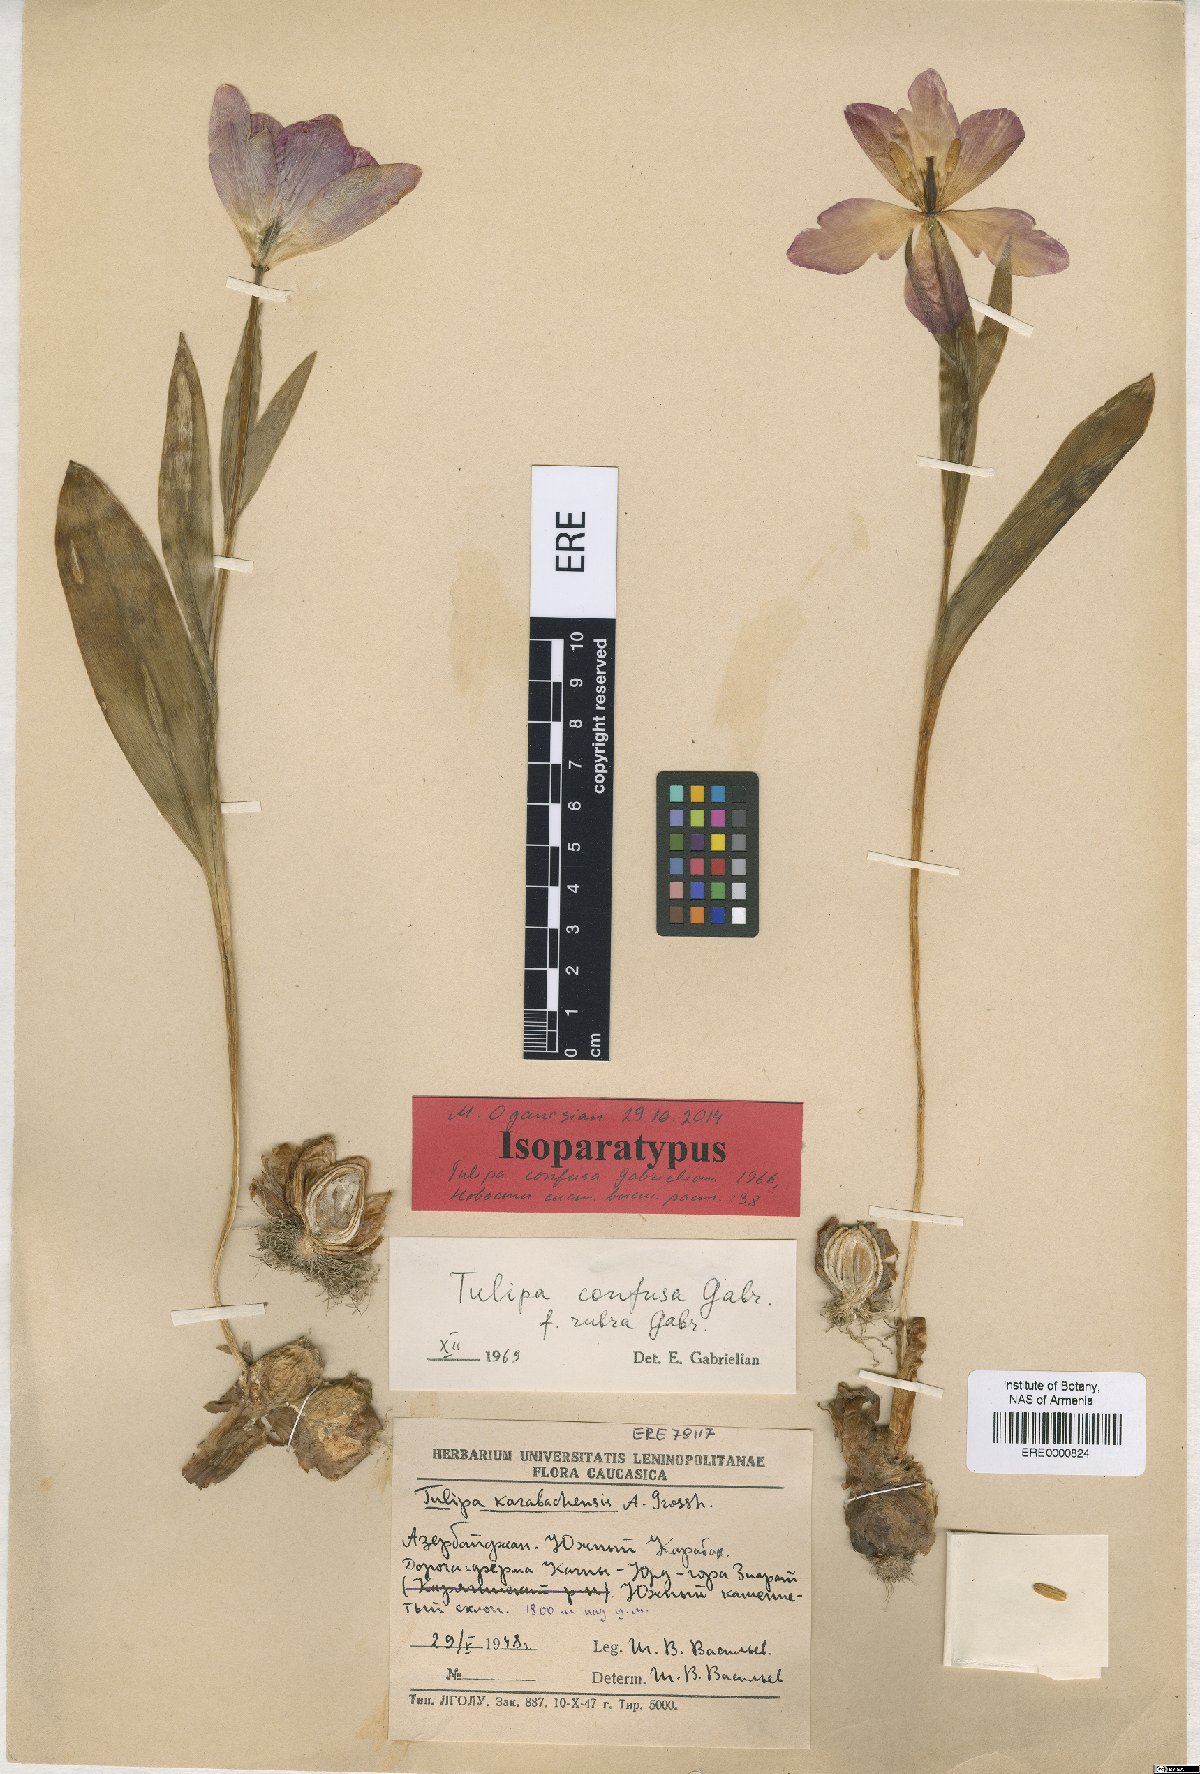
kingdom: Plantae
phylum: Tracheophyta
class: Liliopsida
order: Liliales
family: Liliaceae
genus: Tulipa
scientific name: Tulipa armena
